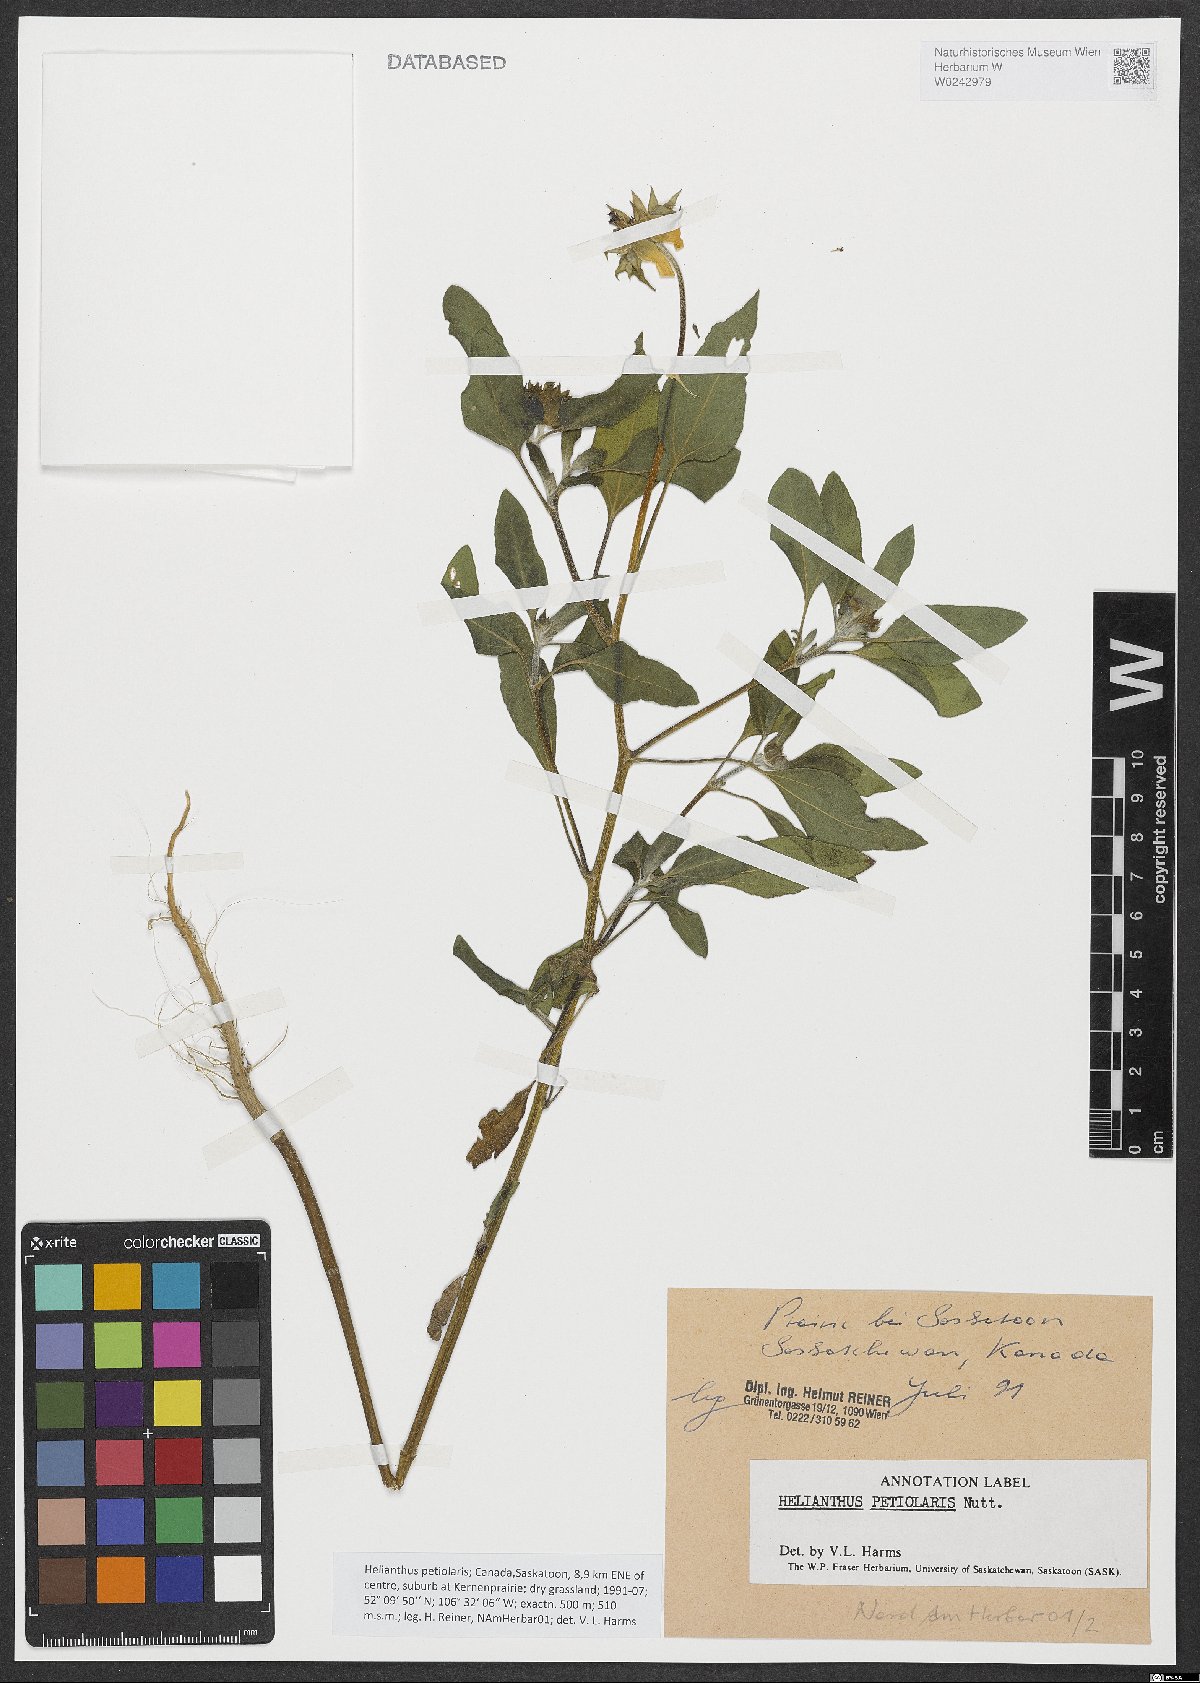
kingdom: Plantae
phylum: Tracheophyta
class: Magnoliopsida
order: Asterales
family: Asteraceae
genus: Helianthus
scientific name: Helianthus petiolaris
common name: Lesser sunflower
